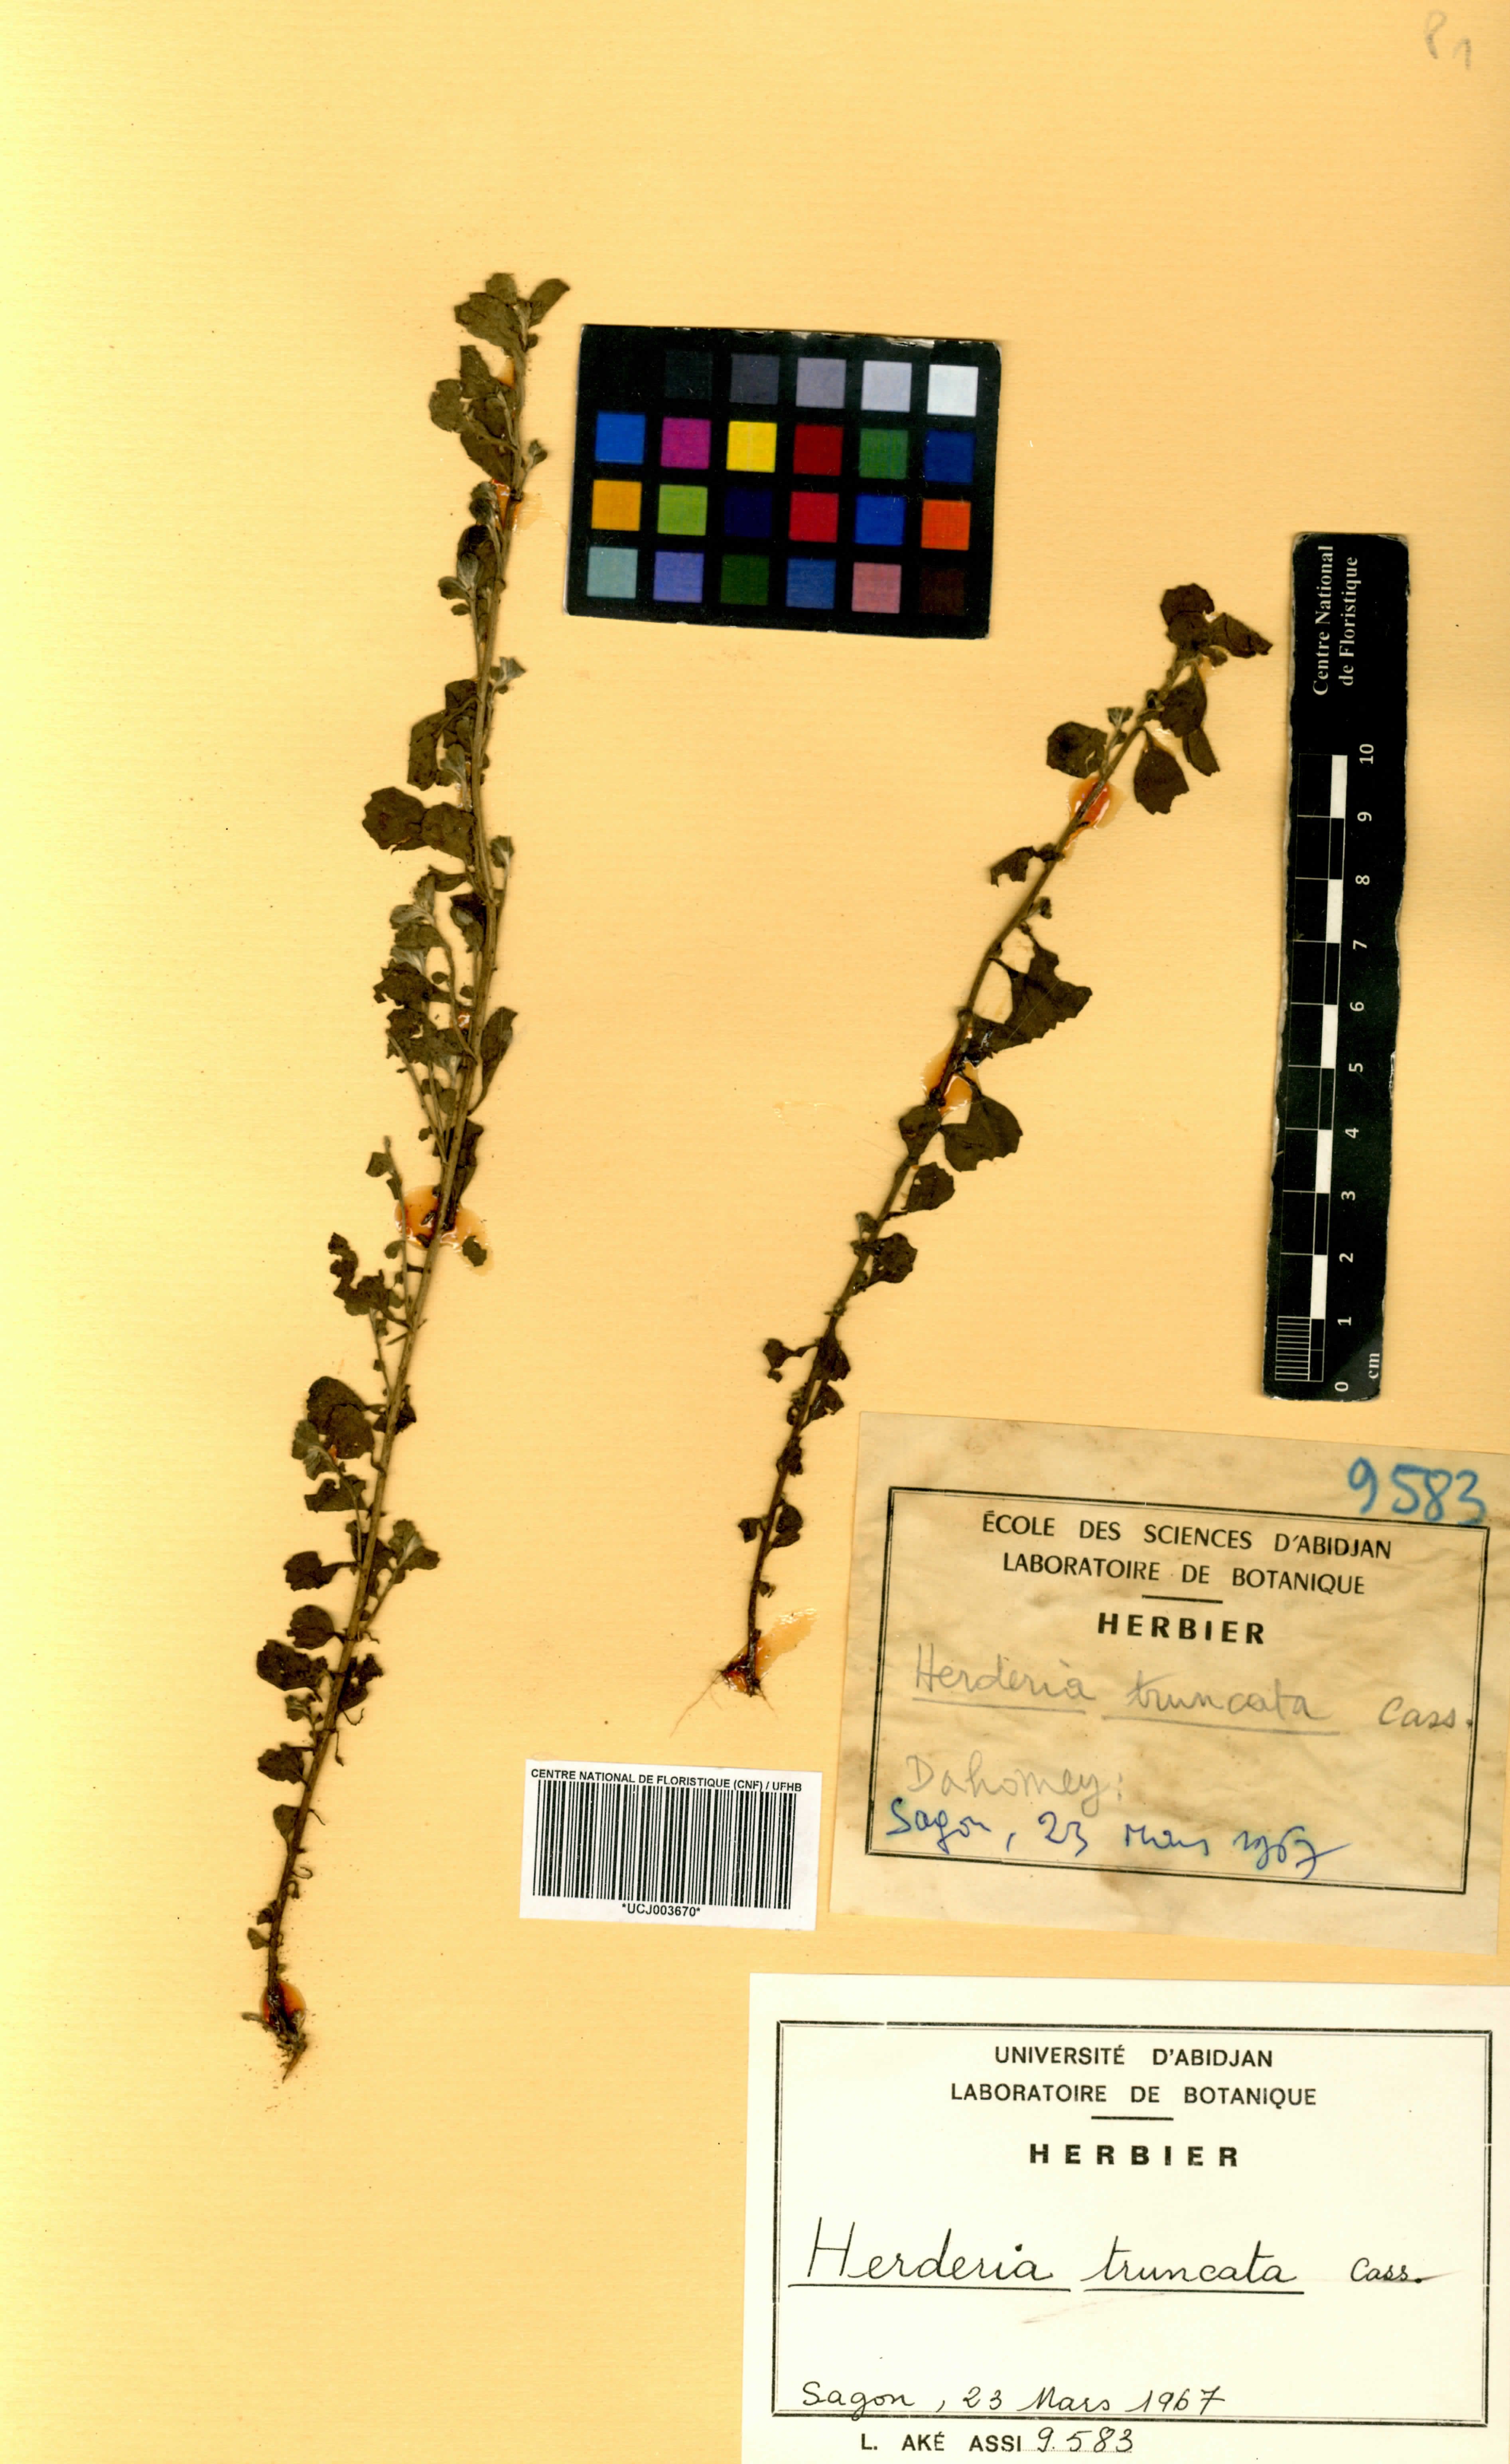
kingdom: Plantae
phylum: Tracheophyta
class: Magnoliopsida
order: Asterales
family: Asteraceae
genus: Herderia
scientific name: Herderia truncata
